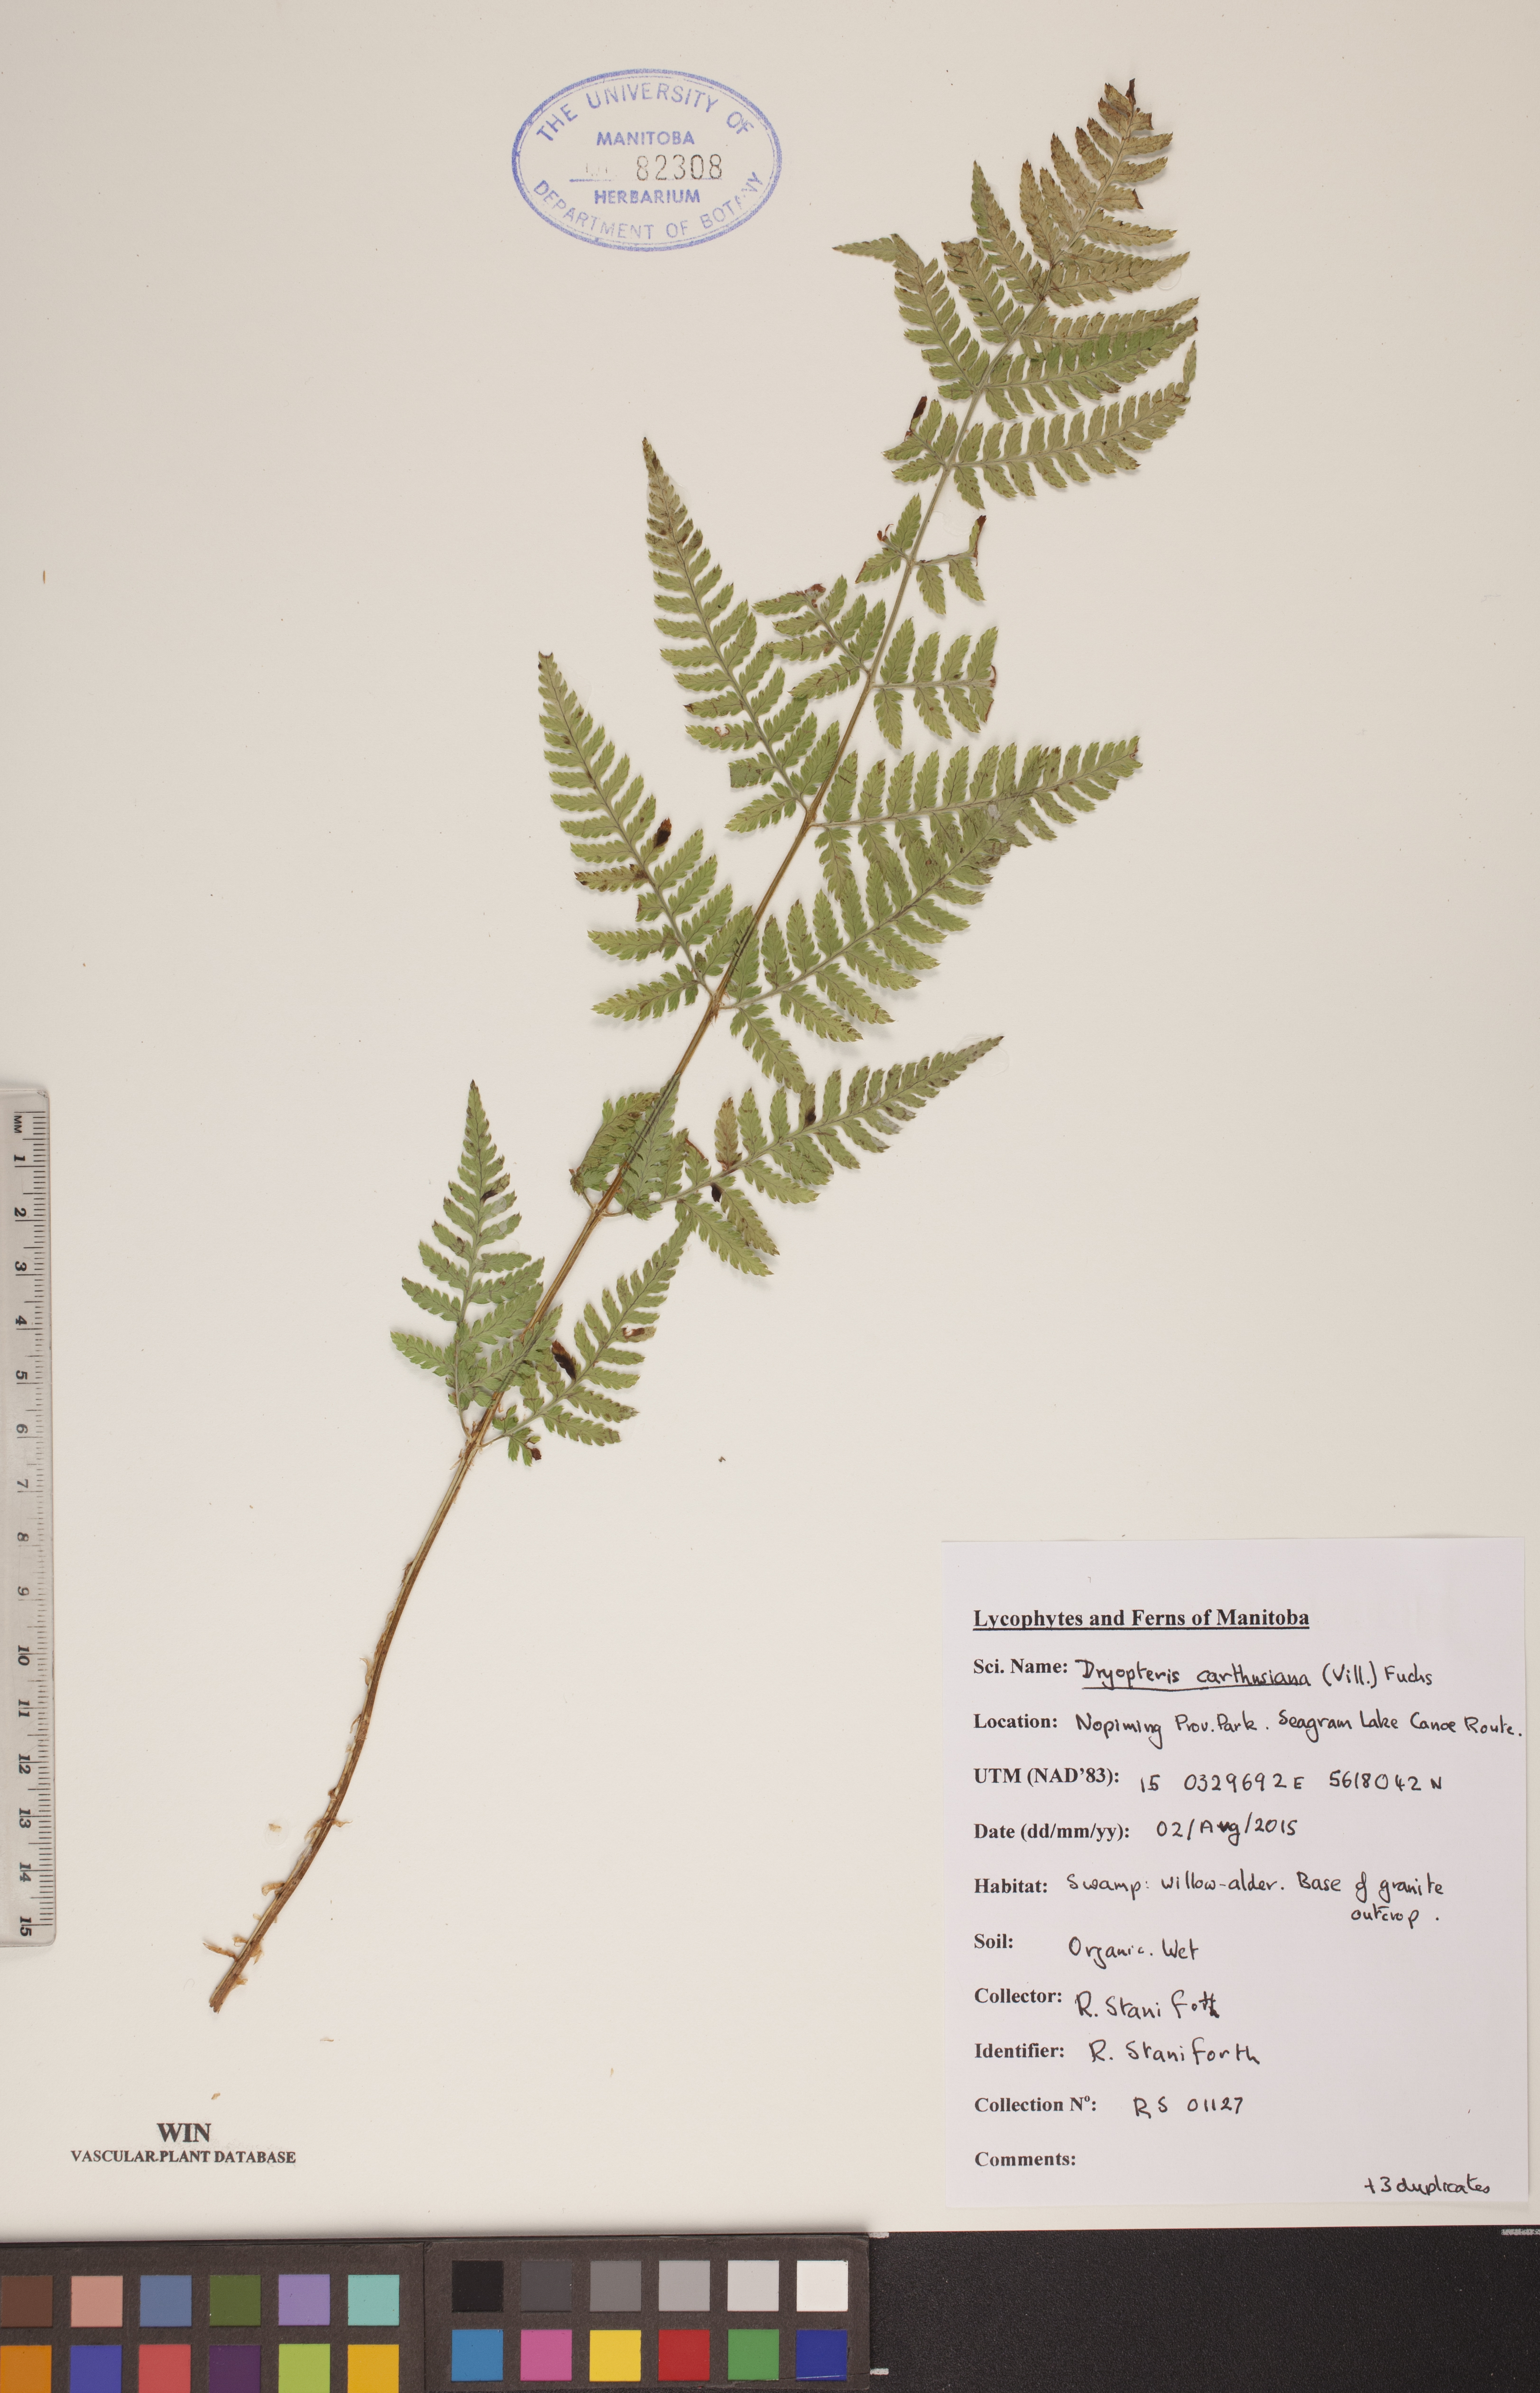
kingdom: Plantae
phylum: Tracheophyta
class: Polypodiopsida
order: Polypodiales
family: Dryopteridaceae
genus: Dryopteris
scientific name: Dryopteris carthusiana
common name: Narrow buckler-fern
